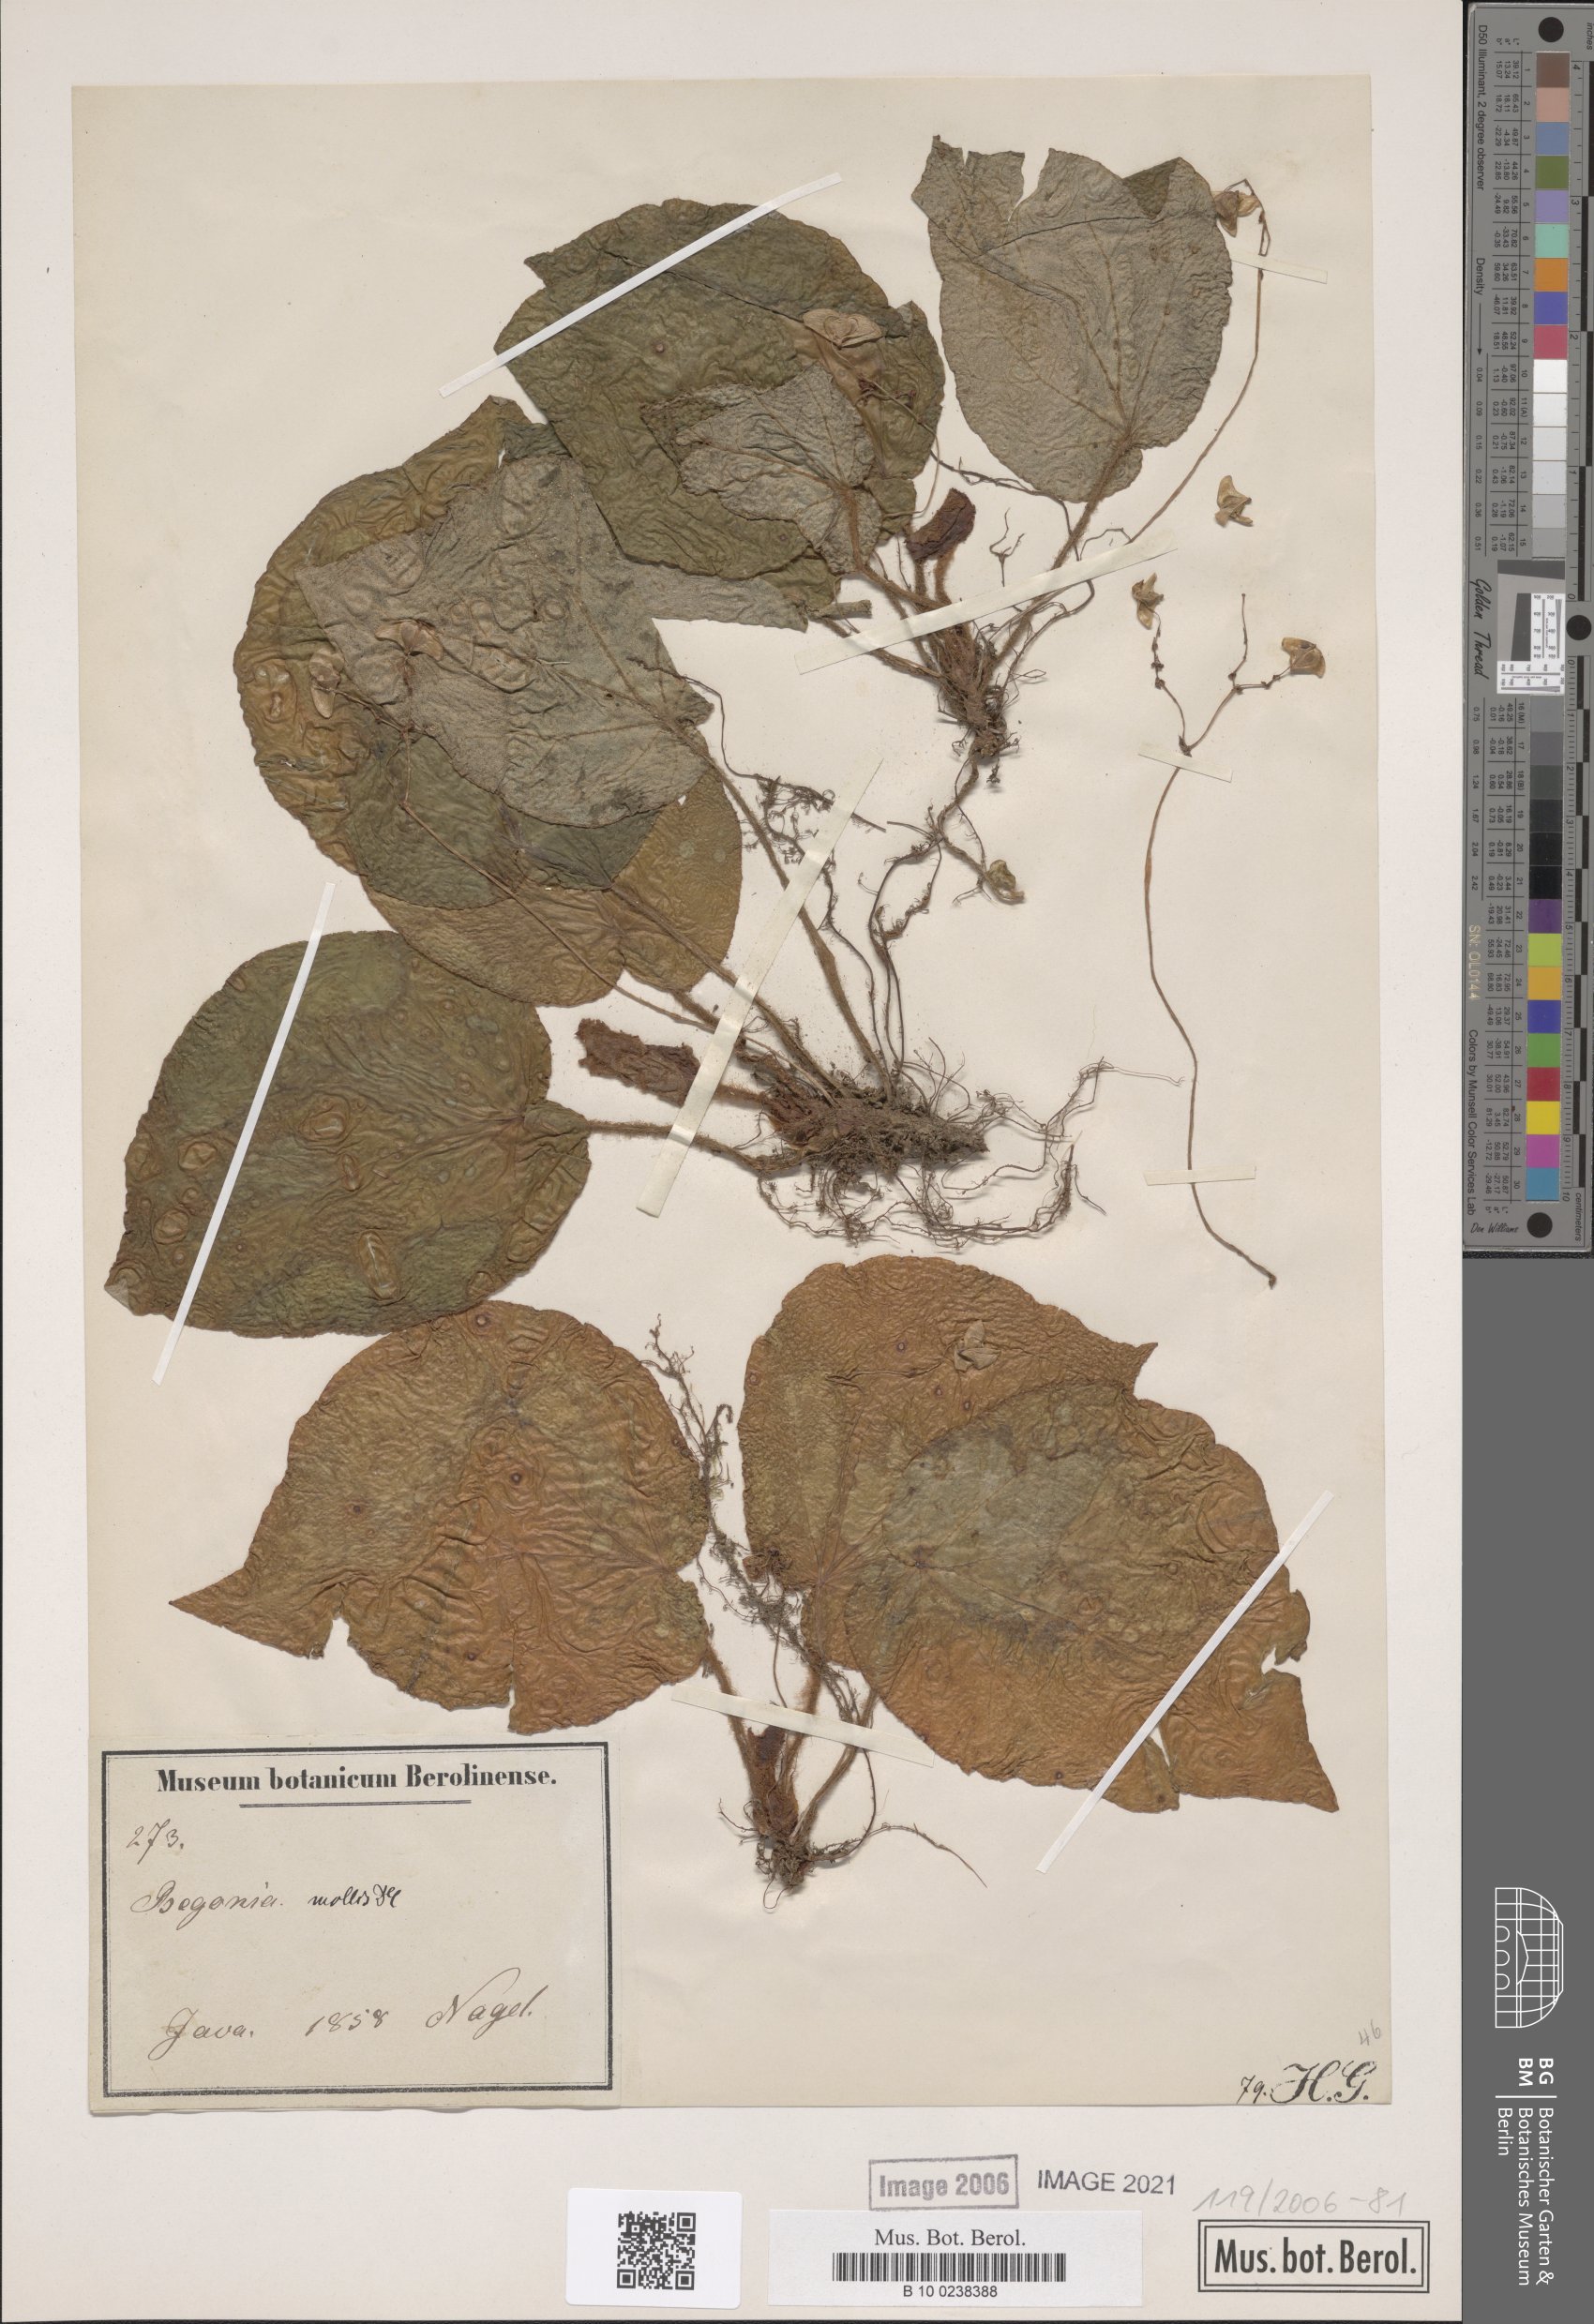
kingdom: Plantae
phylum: Tracheophyta
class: Magnoliopsida
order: Cucurbitales
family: Begoniaceae
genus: Begonia
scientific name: Begonia mollis
